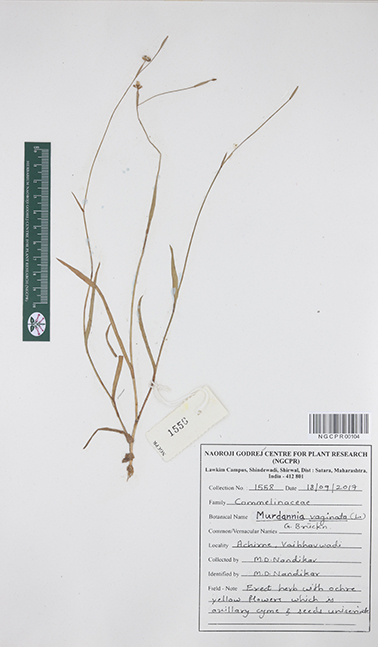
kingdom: Plantae
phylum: Tracheophyta
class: Liliopsida
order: Commelinales
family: Commelinaceae
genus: Murdannia
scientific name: Murdannia vaginata
